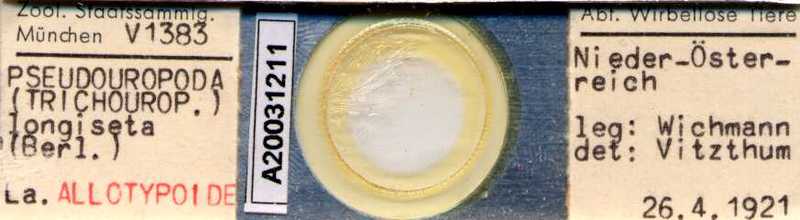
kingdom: Animalia
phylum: Arthropoda
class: Arachnida
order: Mesostigmata
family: Trematuridae
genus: Trichouropoda
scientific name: Trichouropoda vitzthumilongiseta
